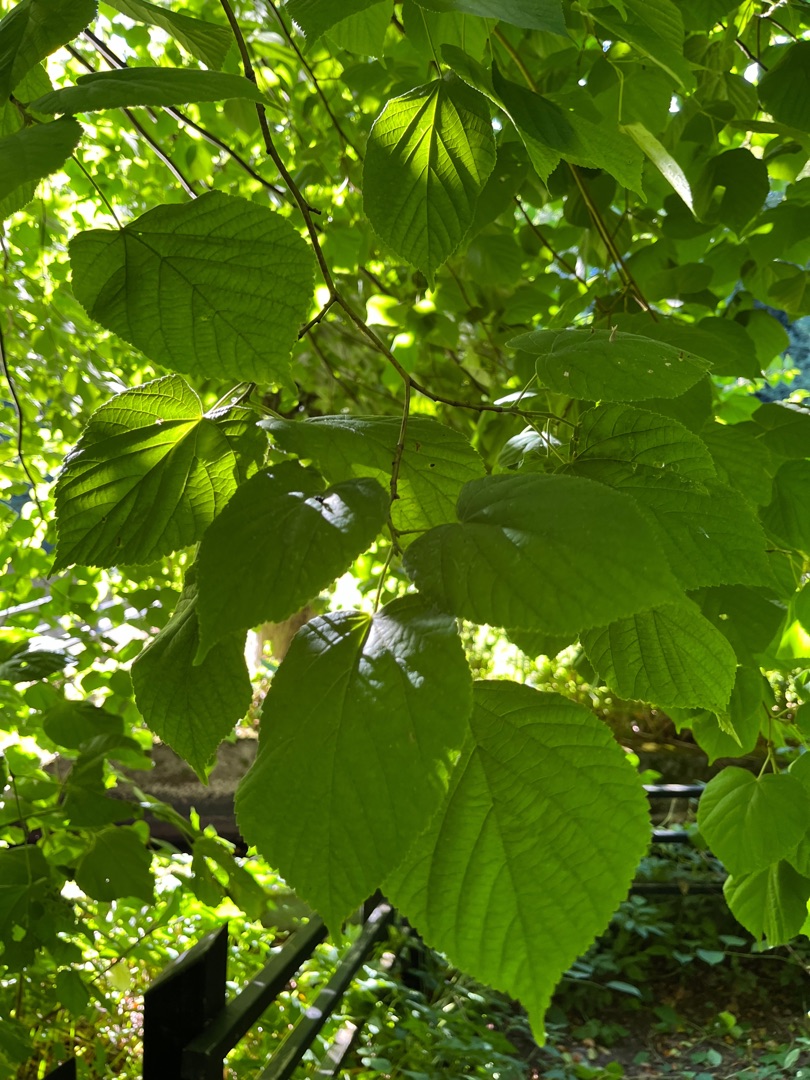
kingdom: Plantae
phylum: Tracheophyta
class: Magnoliopsida
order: Malvales
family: Malvaceae
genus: Tilia
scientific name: Tilia platyphyllos
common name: Storbladet lind
